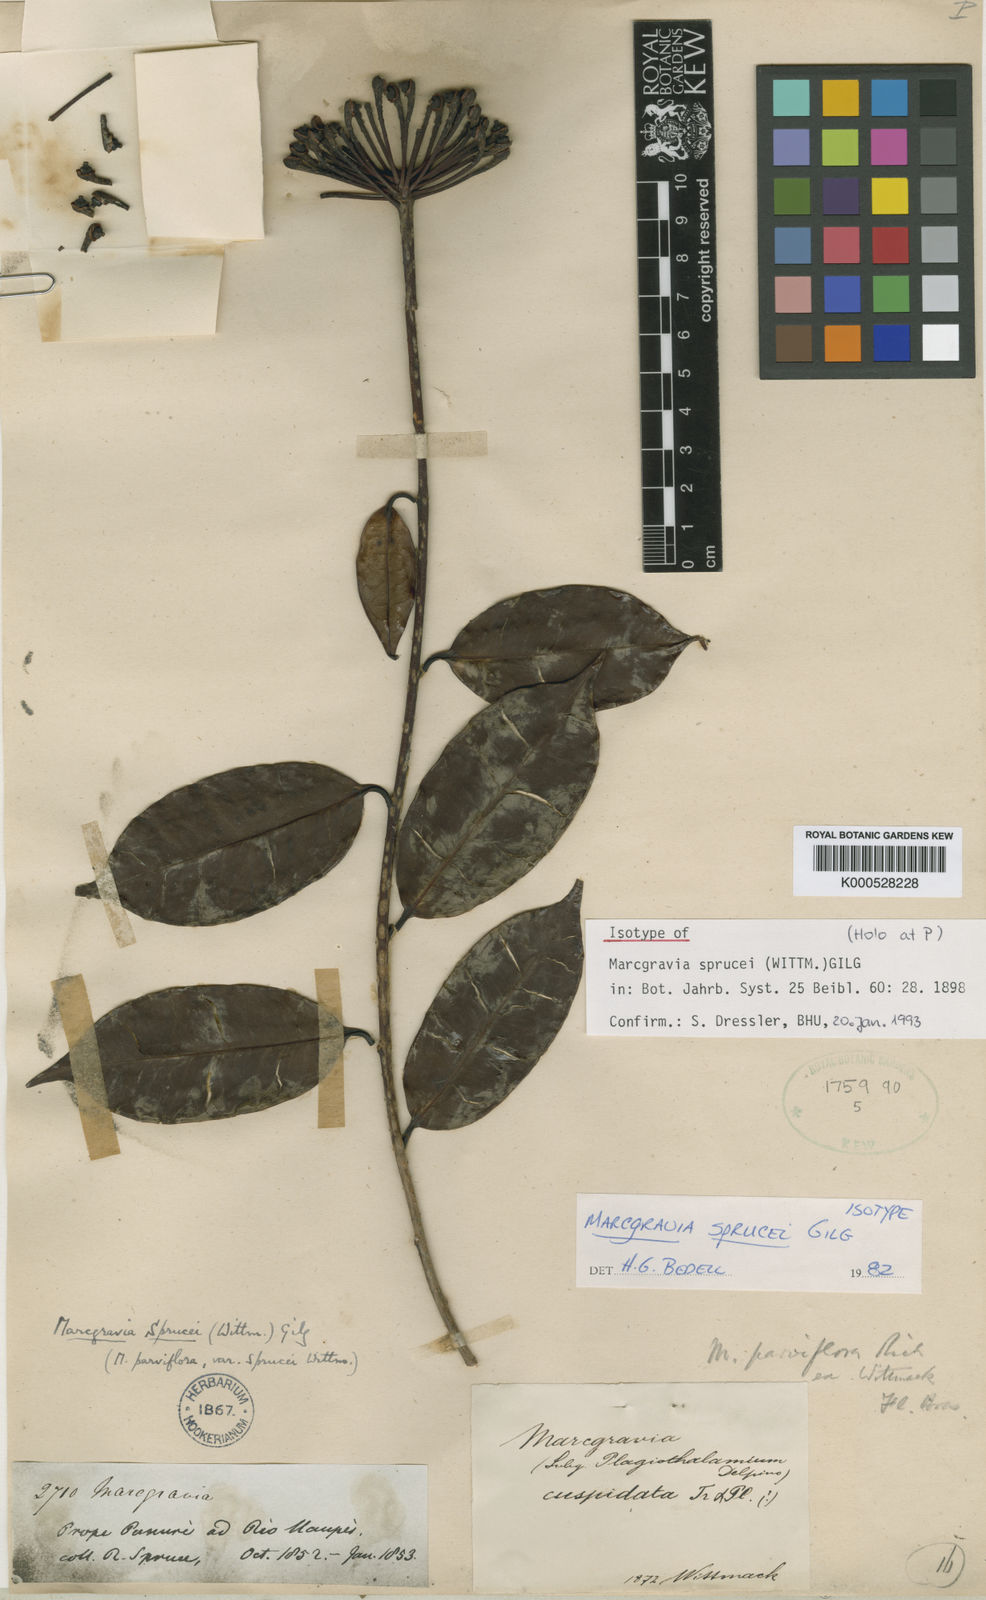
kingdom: Plantae
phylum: Tracheophyta
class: Magnoliopsida
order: Ericales
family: Marcgraviaceae
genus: Marcgravia
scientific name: Marcgravia sprucei
